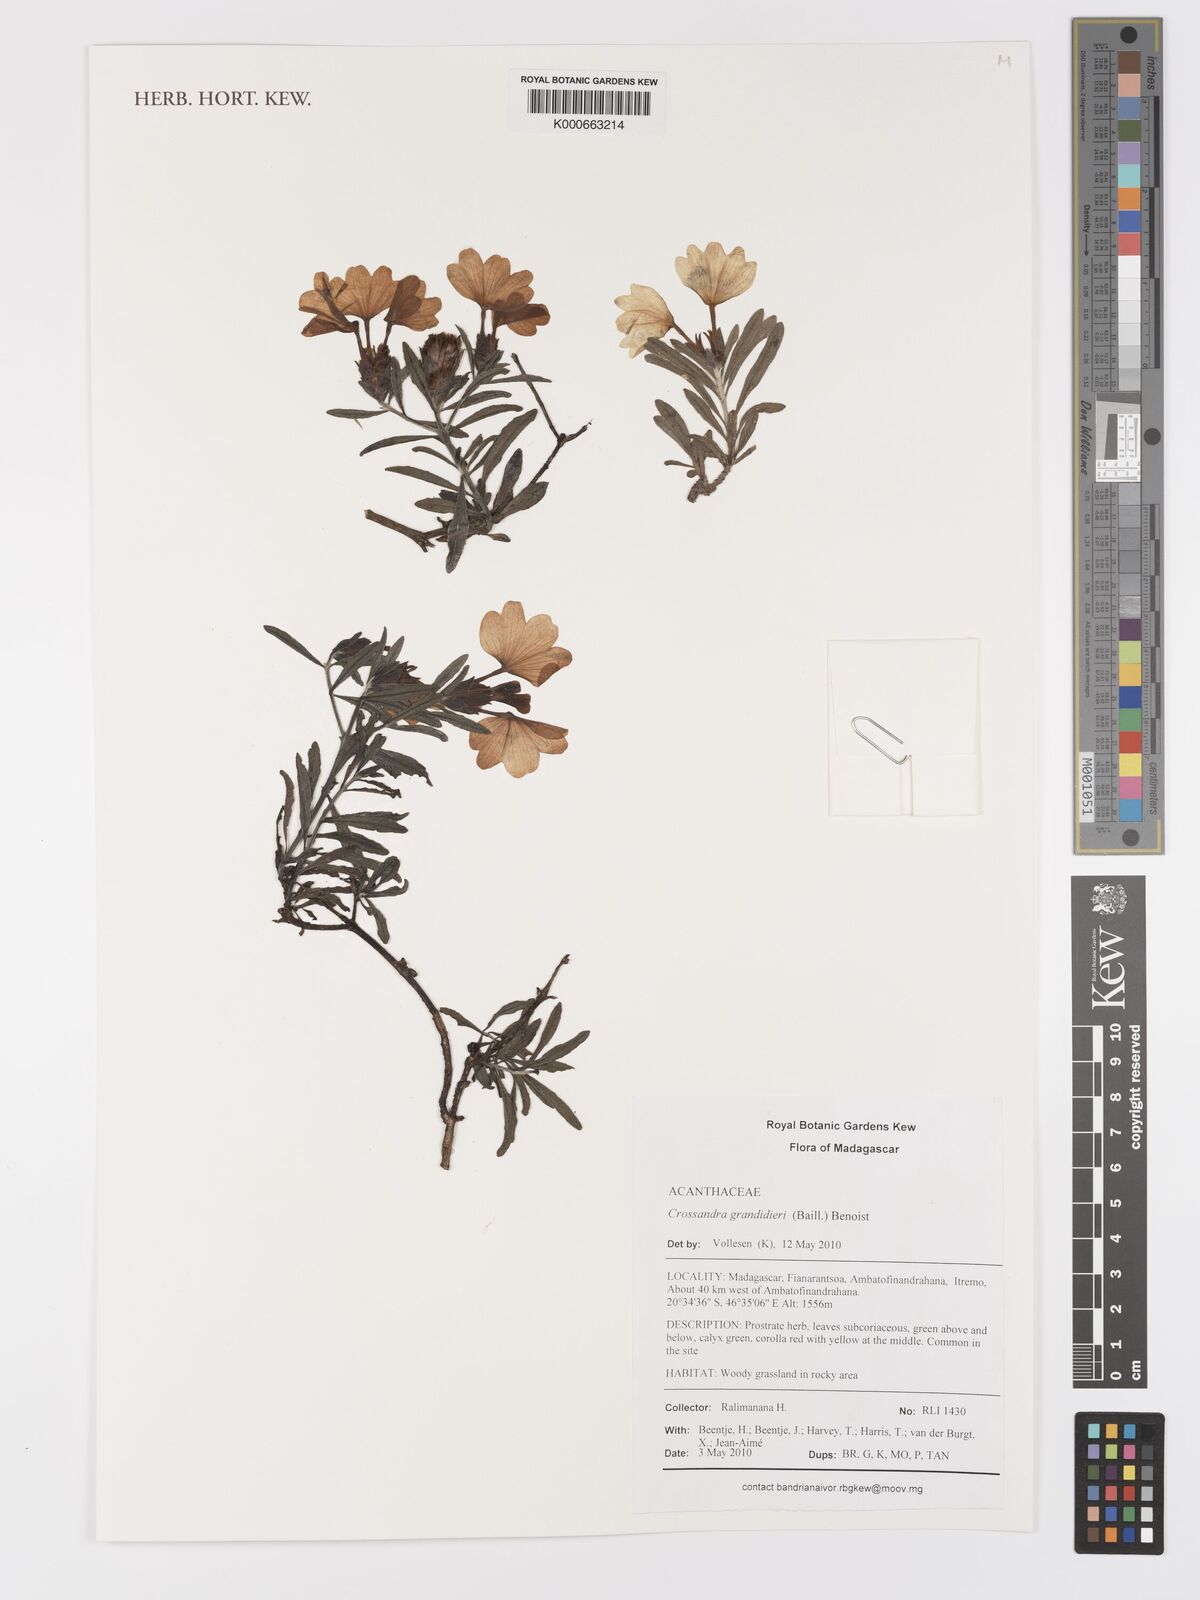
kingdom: Plantae
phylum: Tracheophyta
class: Magnoliopsida
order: Lamiales
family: Acanthaceae
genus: Crossandra
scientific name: Crossandra grandidieri
